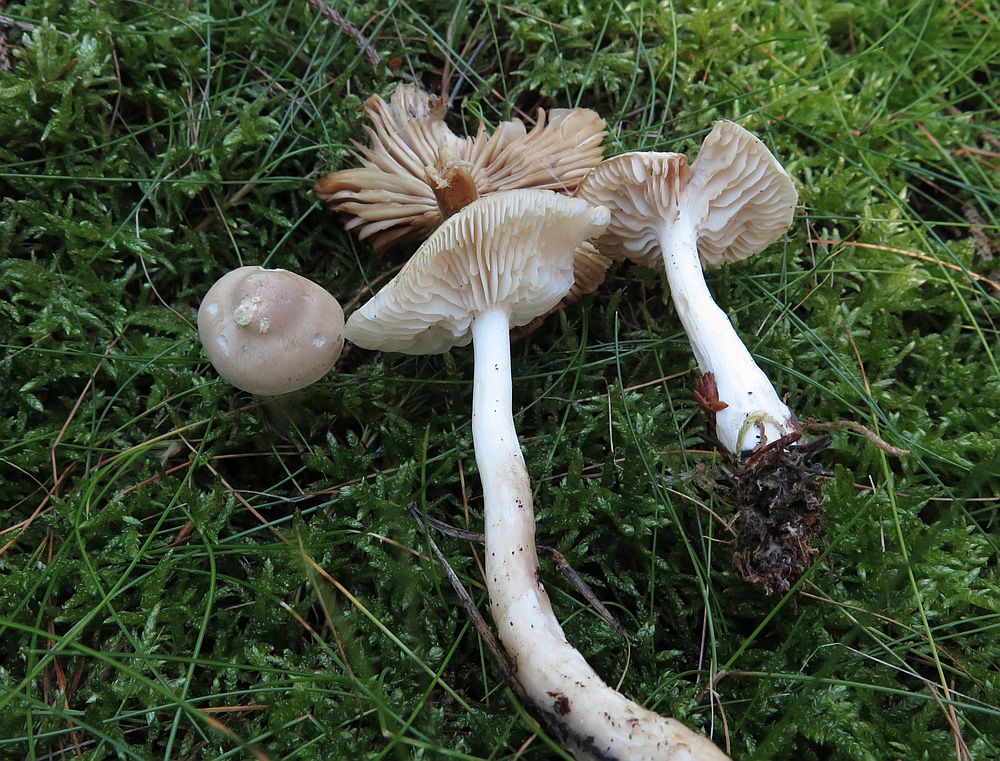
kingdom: Fungi
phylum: Basidiomycota
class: Agaricomycetes
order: Agaricales
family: Tricholomataceae
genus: Tricholoma
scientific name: Tricholoma inamoenum
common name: højstokket ridderhat
